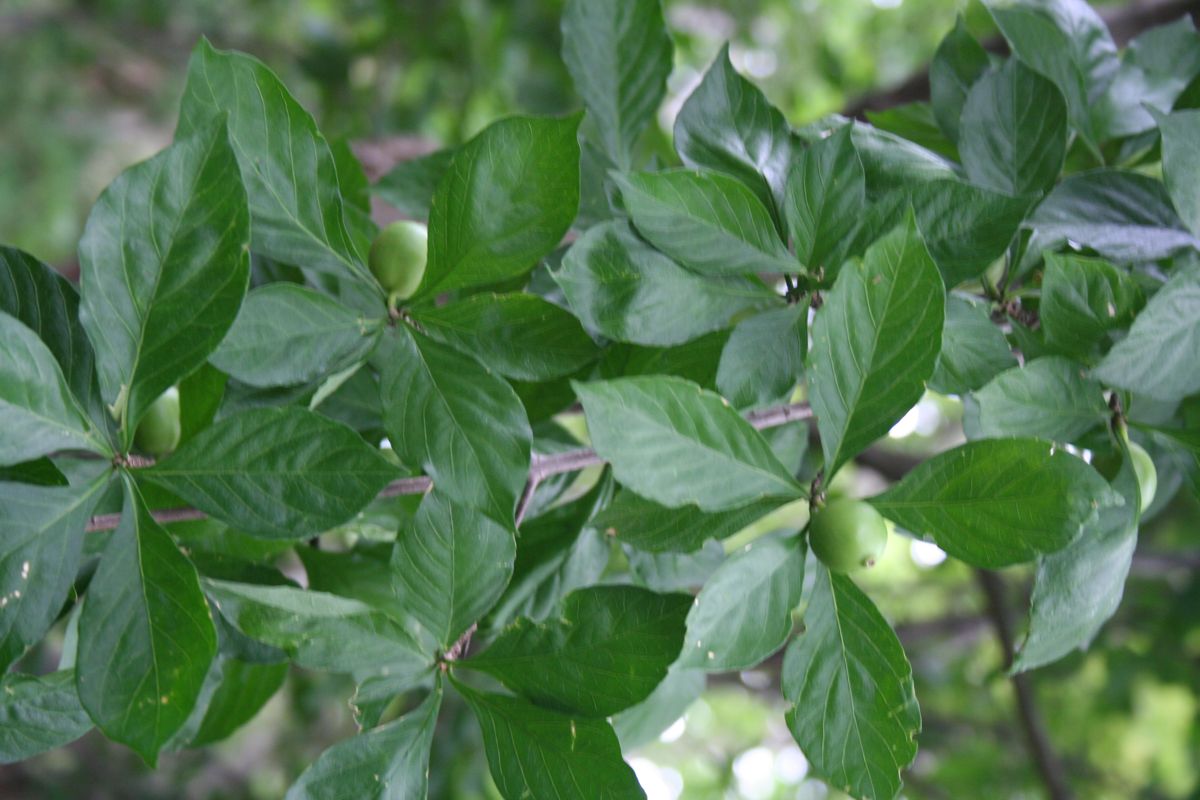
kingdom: Plantae
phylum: Tracheophyta
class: Magnoliopsida
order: Gentianales
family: Rubiaceae
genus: Randia
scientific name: Randia armata
